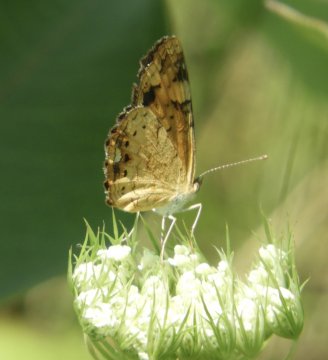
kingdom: Animalia
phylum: Arthropoda
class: Insecta
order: Lepidoptera
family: Nymphalidae
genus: Phyciodes
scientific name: Phyciodes
